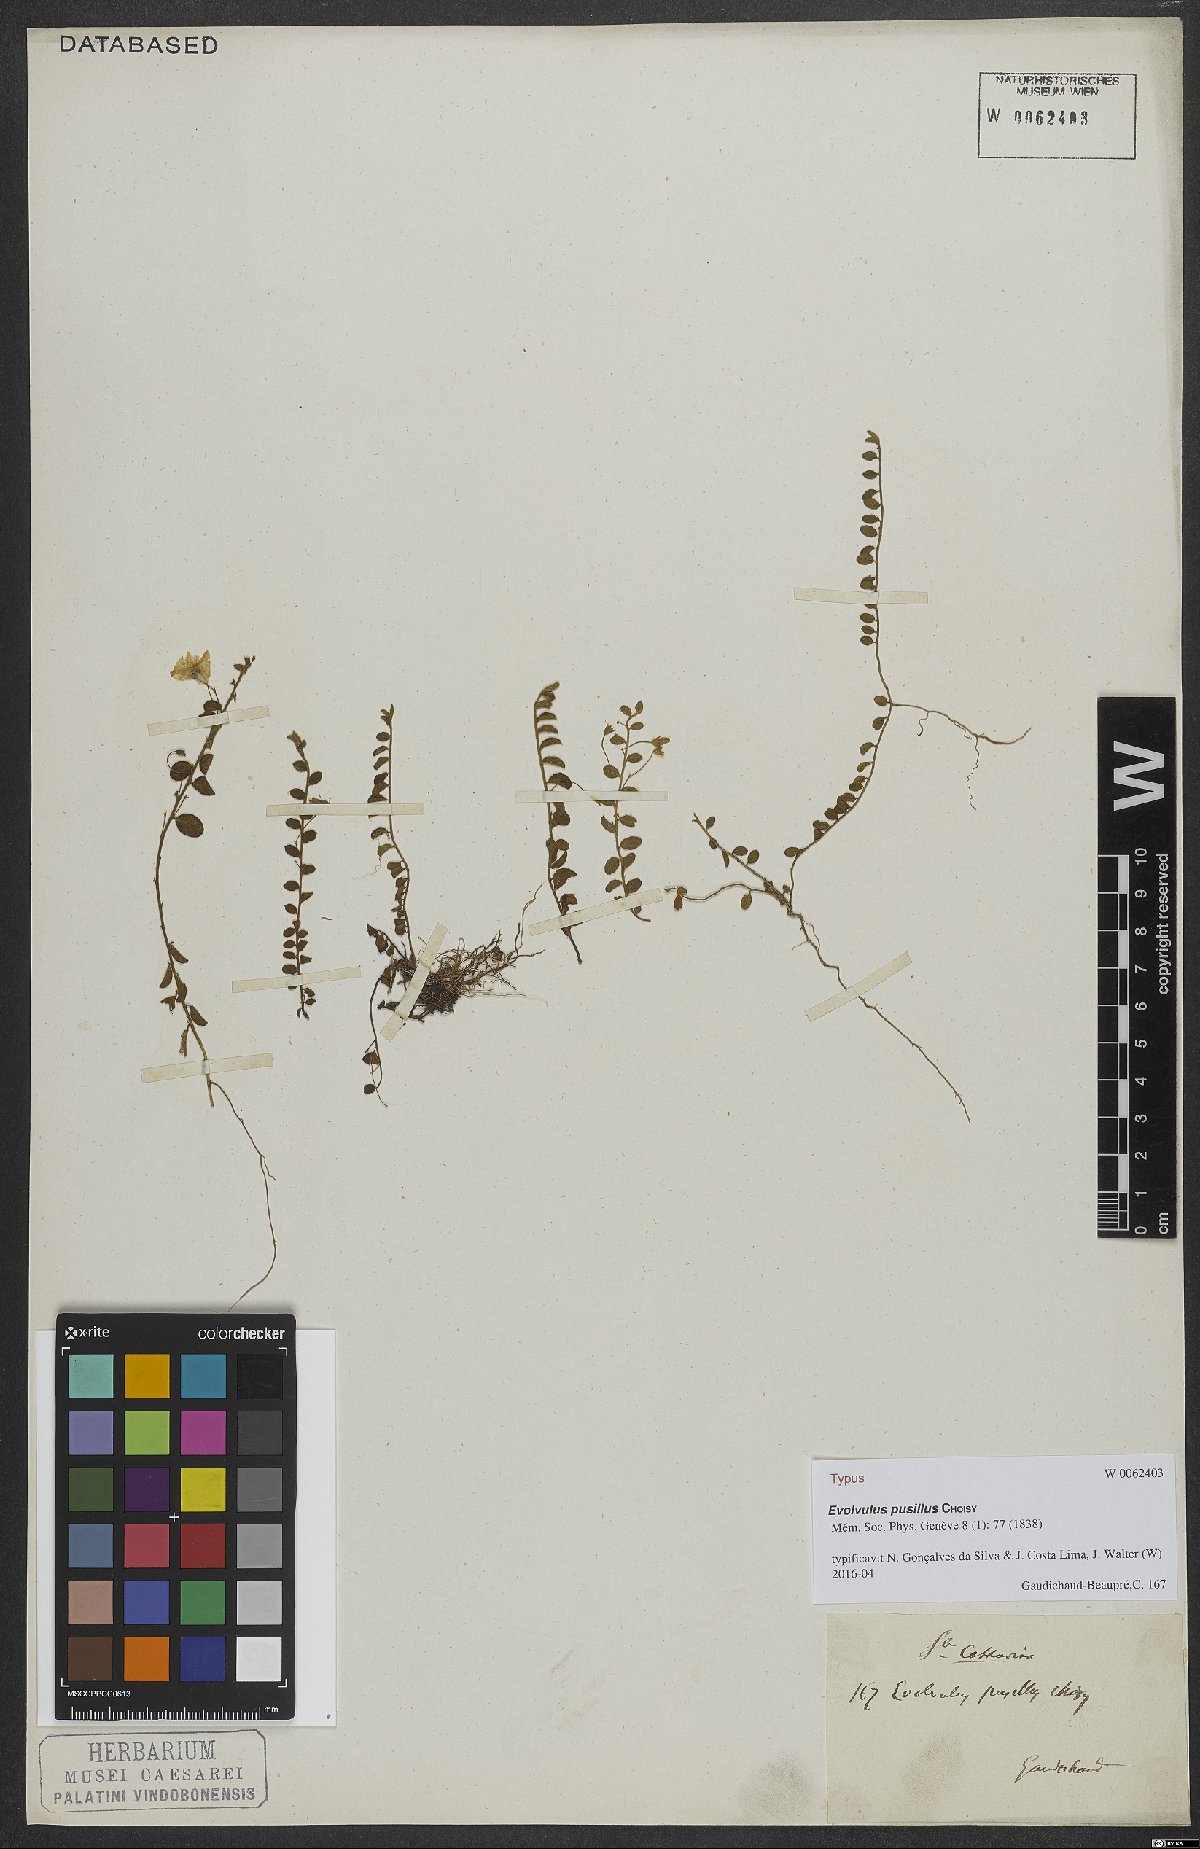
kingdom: Plantae
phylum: Tracheophyta
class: Magnoliopsida
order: Solanales
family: Convolvulaceae
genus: Evolvulus
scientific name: Evolvulus pusillus
